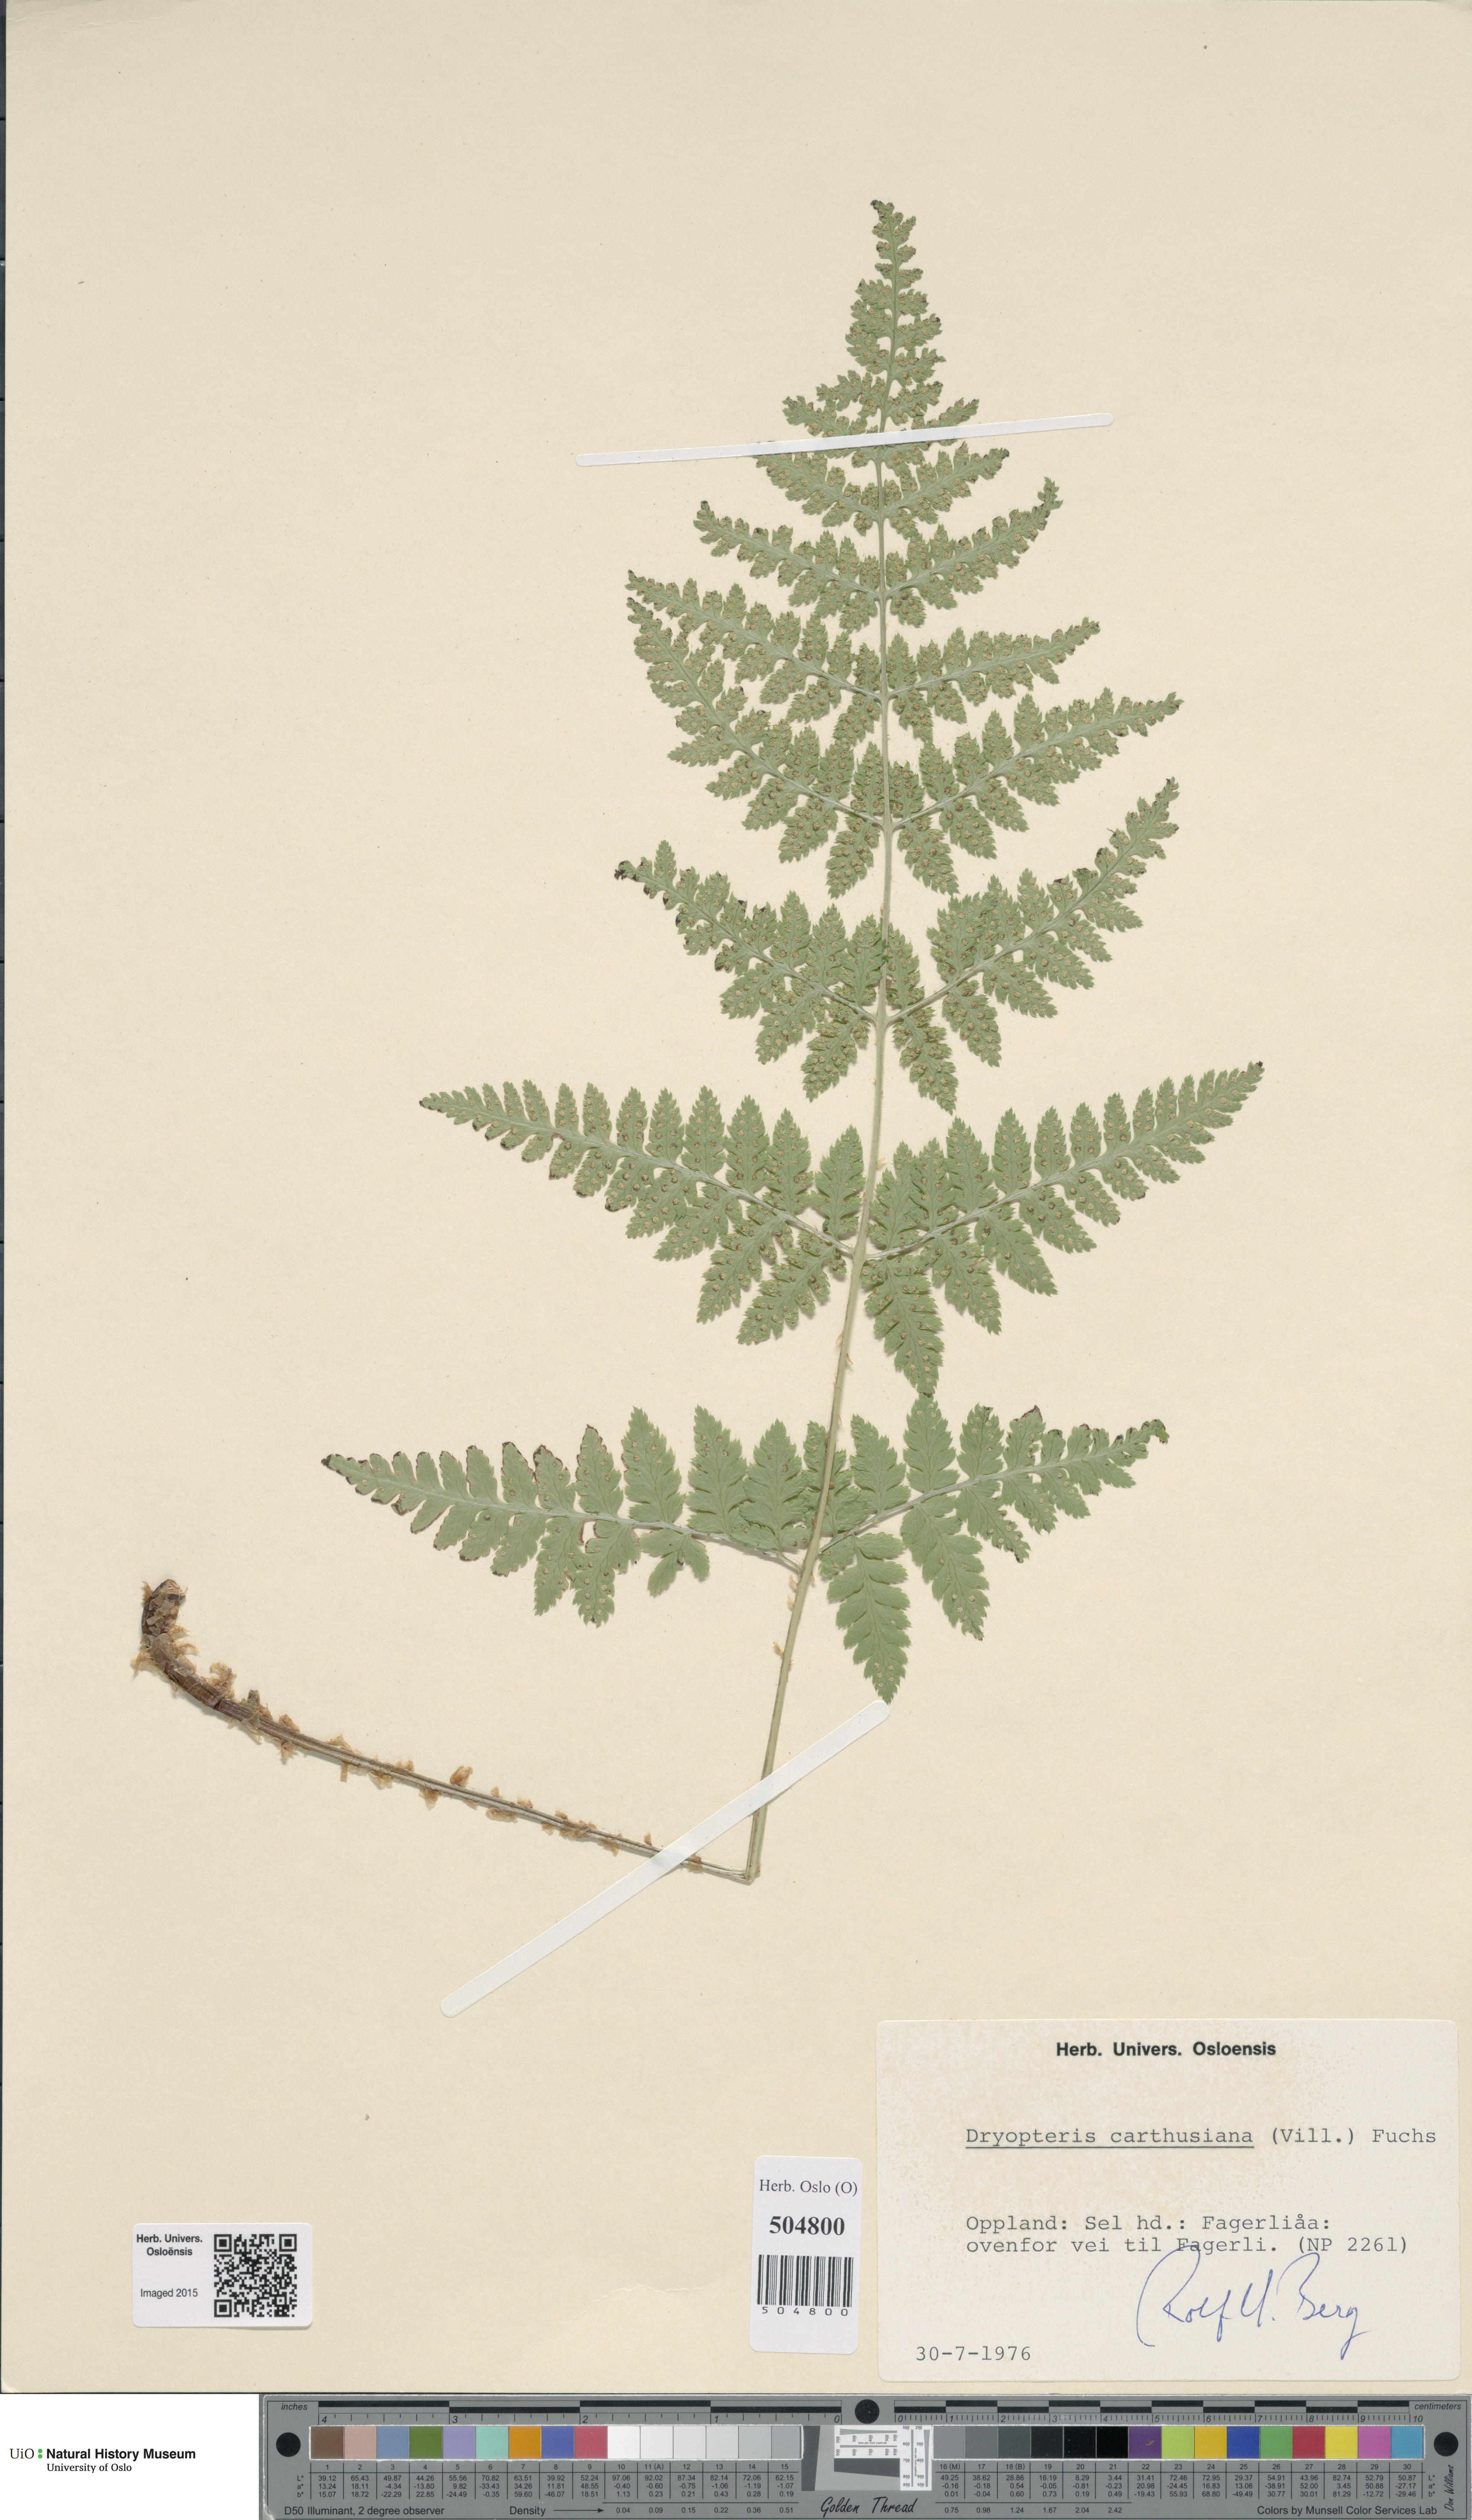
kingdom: Plantae
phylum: Tracheophyta
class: Polypodiopsida
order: Polypodiales
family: Dryopteridaceae
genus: Dryopteris
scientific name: Dryopteris carthusiana
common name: Narrow buckler-fern
